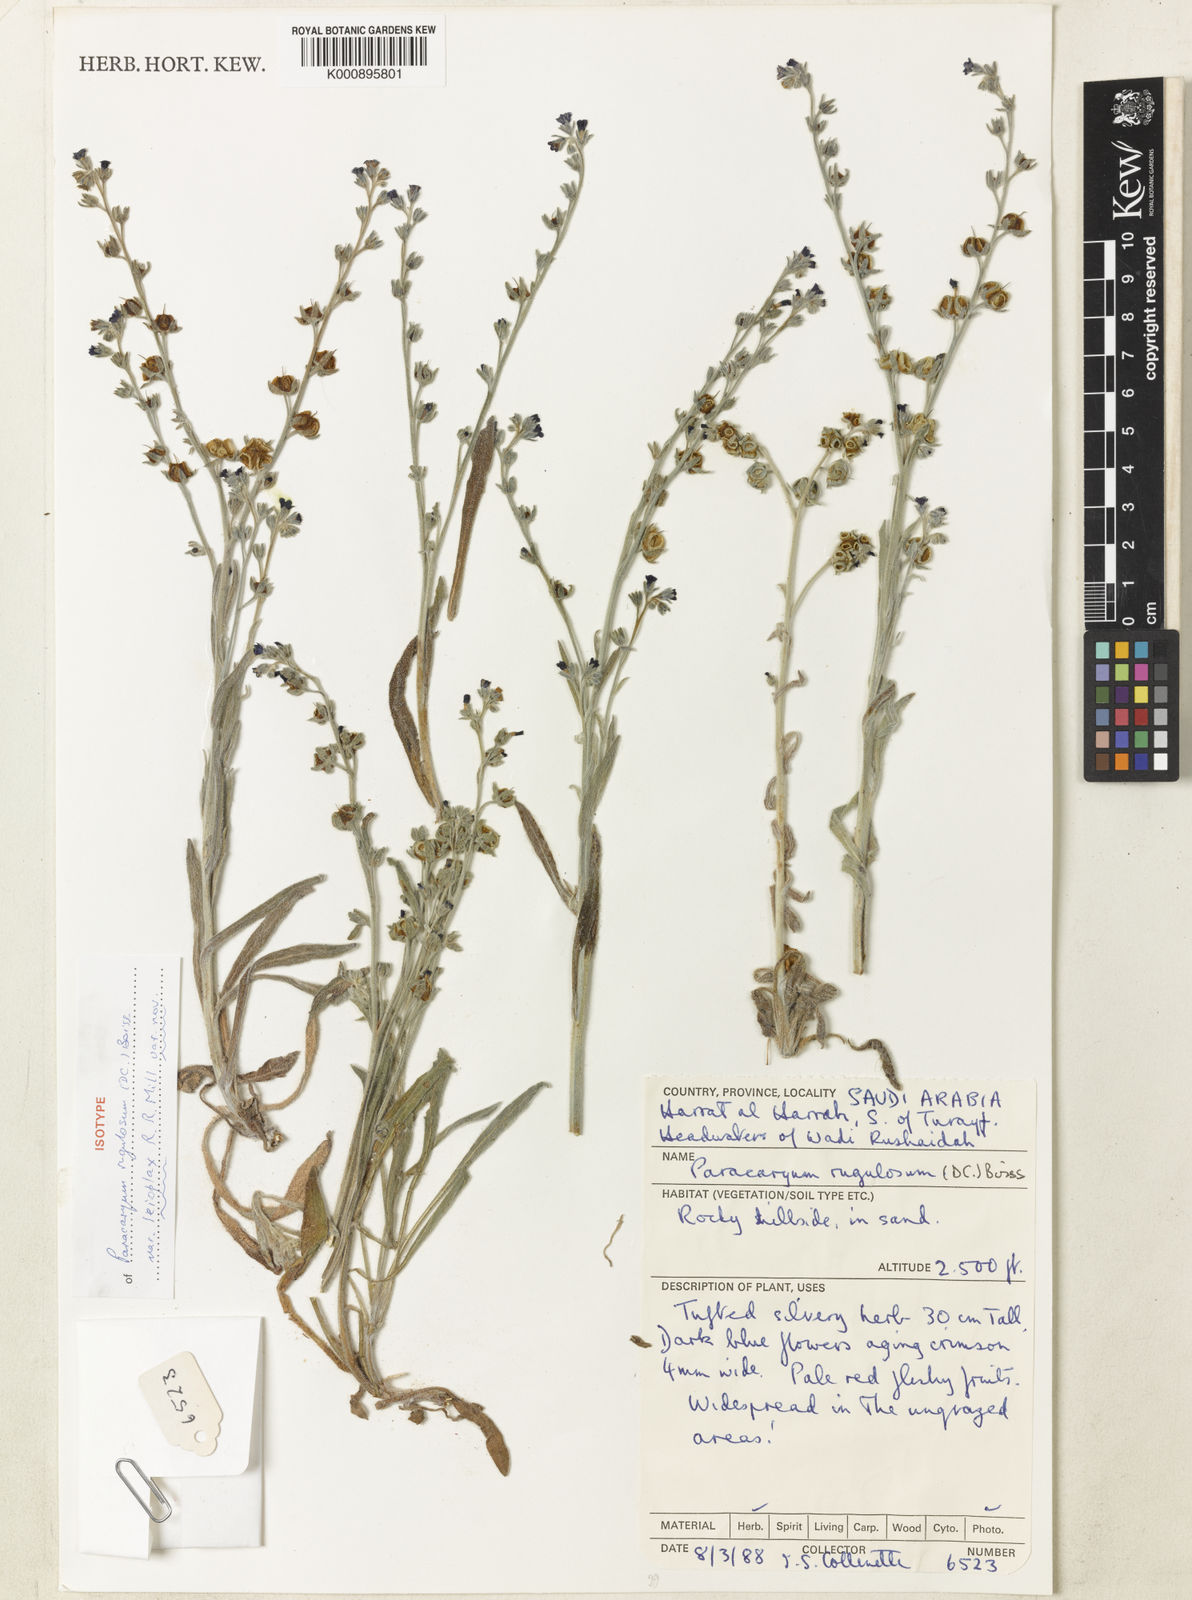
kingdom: Plantae
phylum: Tracheophyta
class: Magnoliopsida
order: Boraginales
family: Boraginaceae
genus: Paracaryum
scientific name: Paracaryum rugulosum
